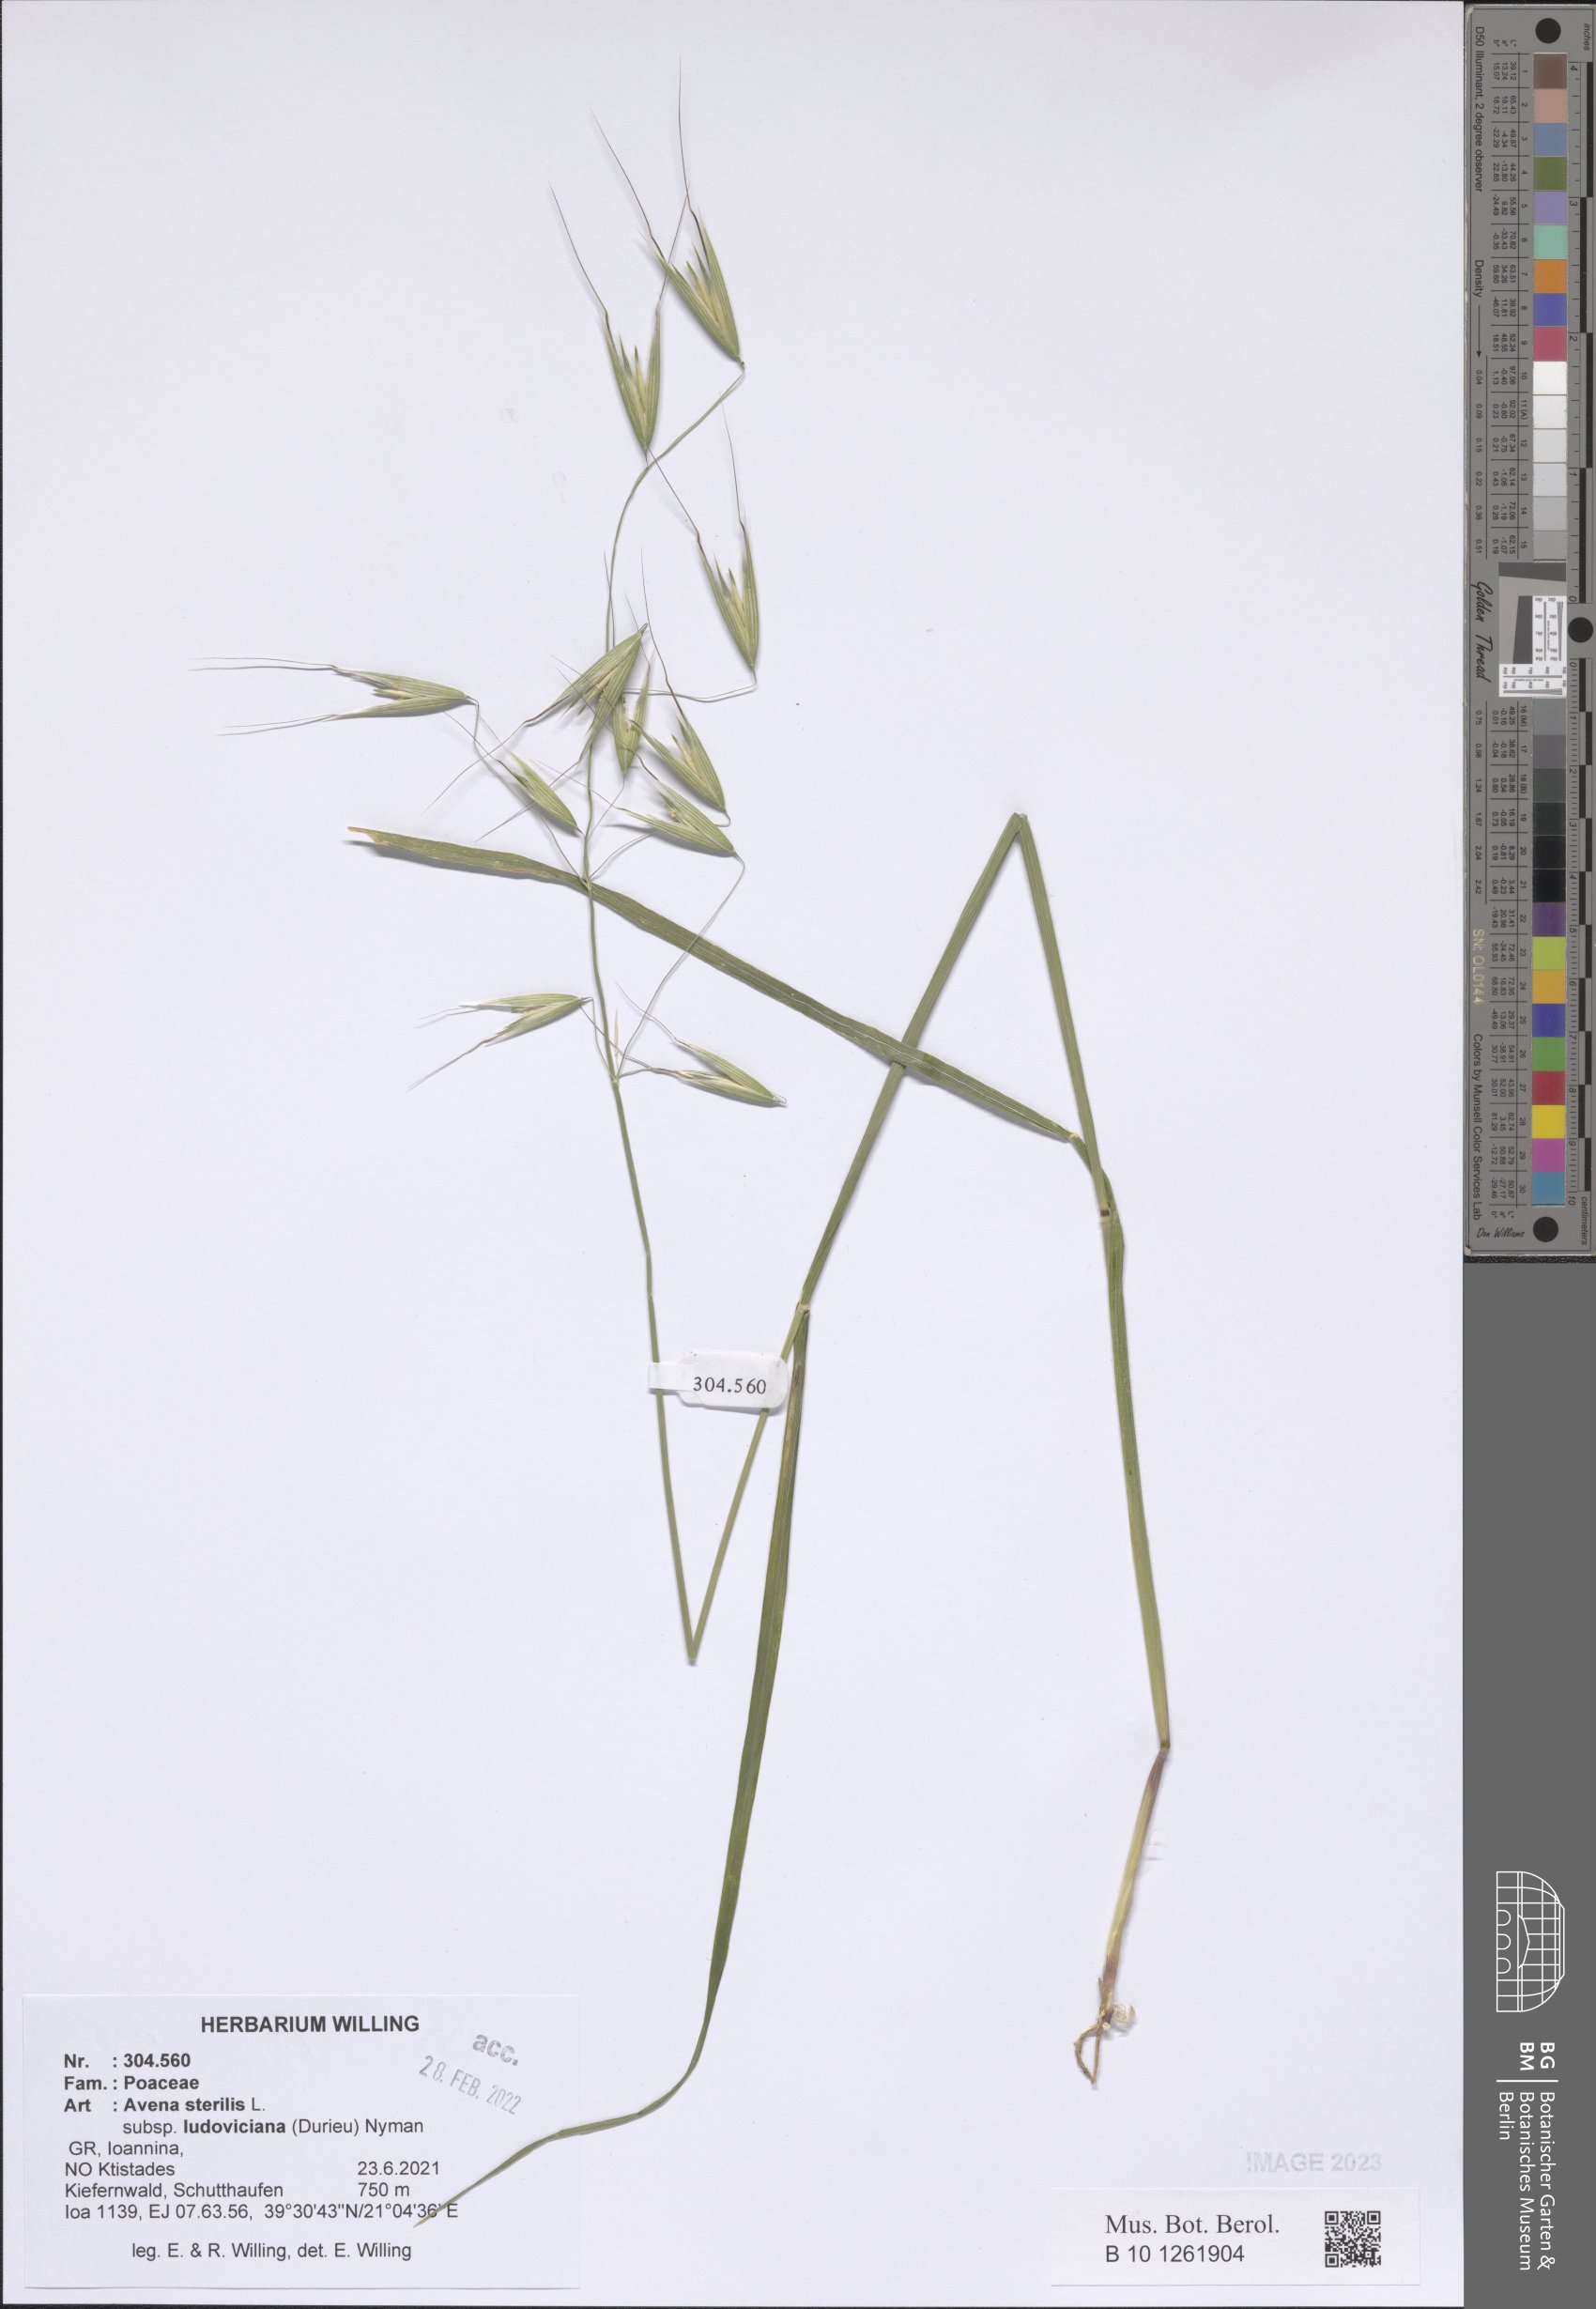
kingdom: Plantae
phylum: Tracheophyta
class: Liliopsida
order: Poales
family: Poaceae
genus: Avena
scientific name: Avena sterilis
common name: Animated oat
